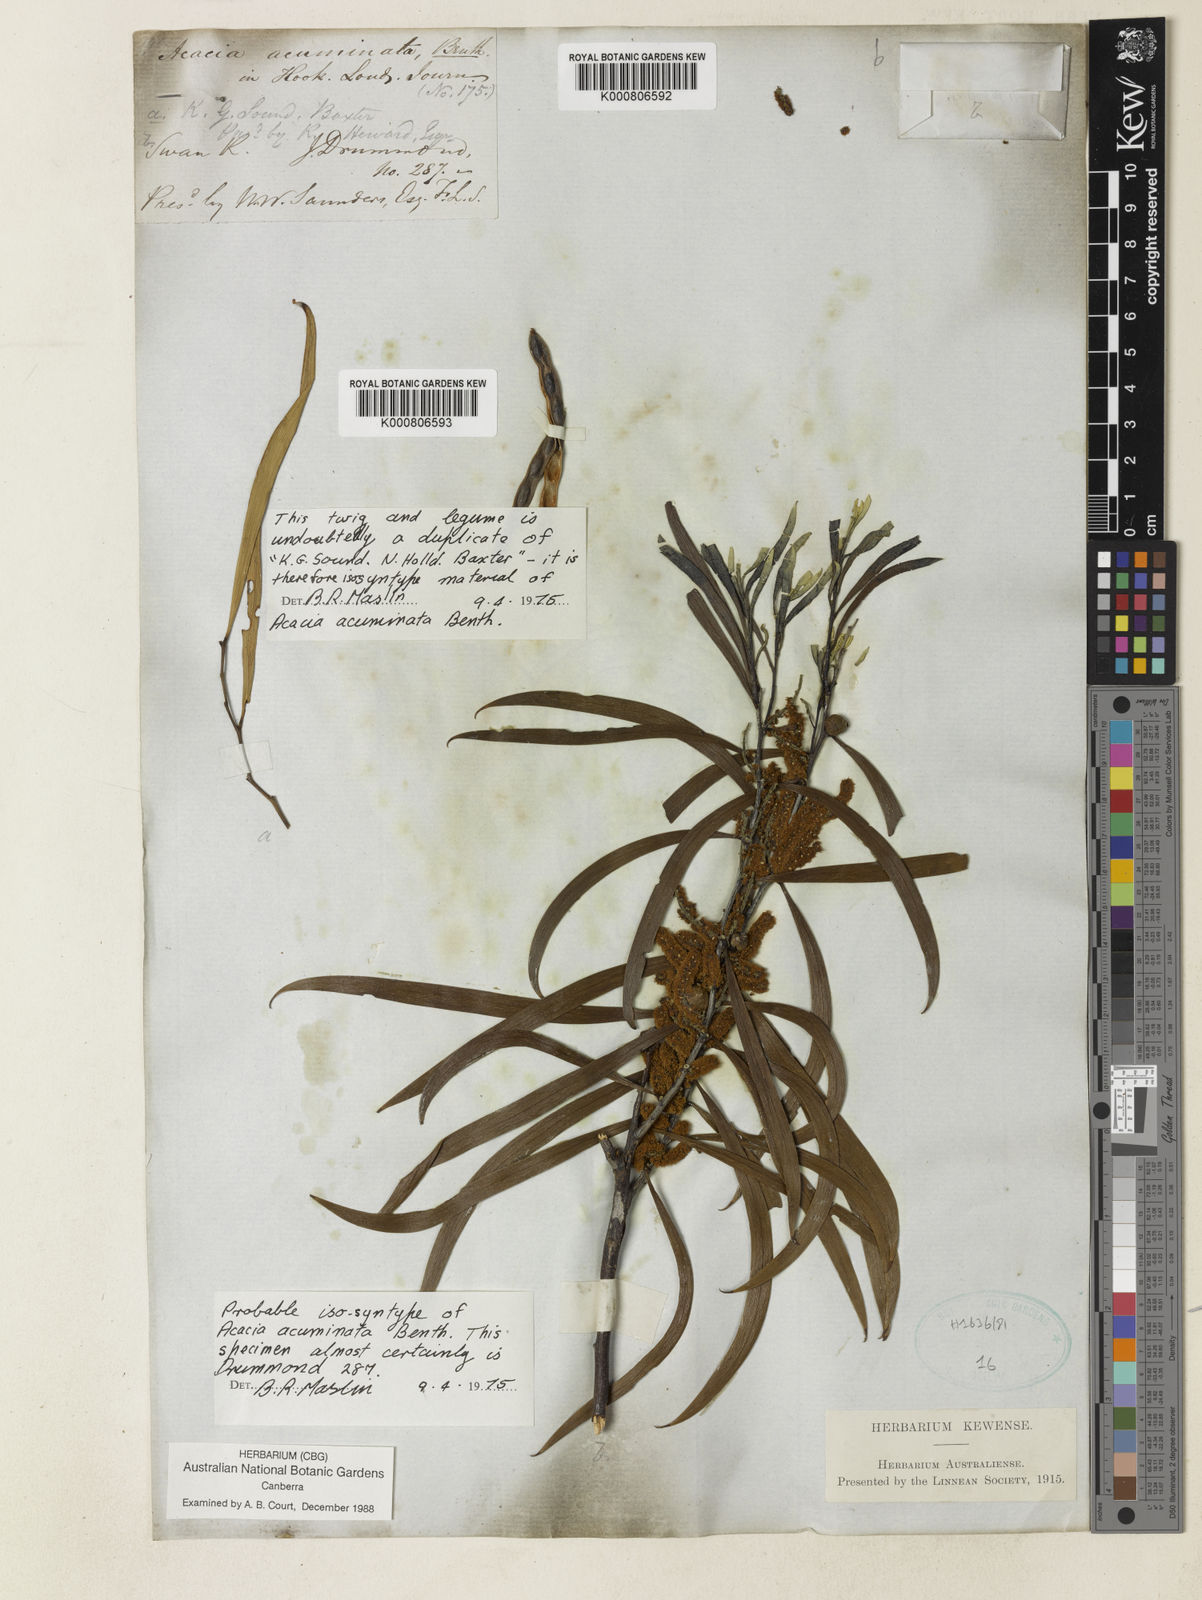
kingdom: Plantae
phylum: Tracheophyta
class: Magnoliopsida
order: Fabales
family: Fabaceae
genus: Acacia
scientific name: Acacia acuminata
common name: Jam wattle
